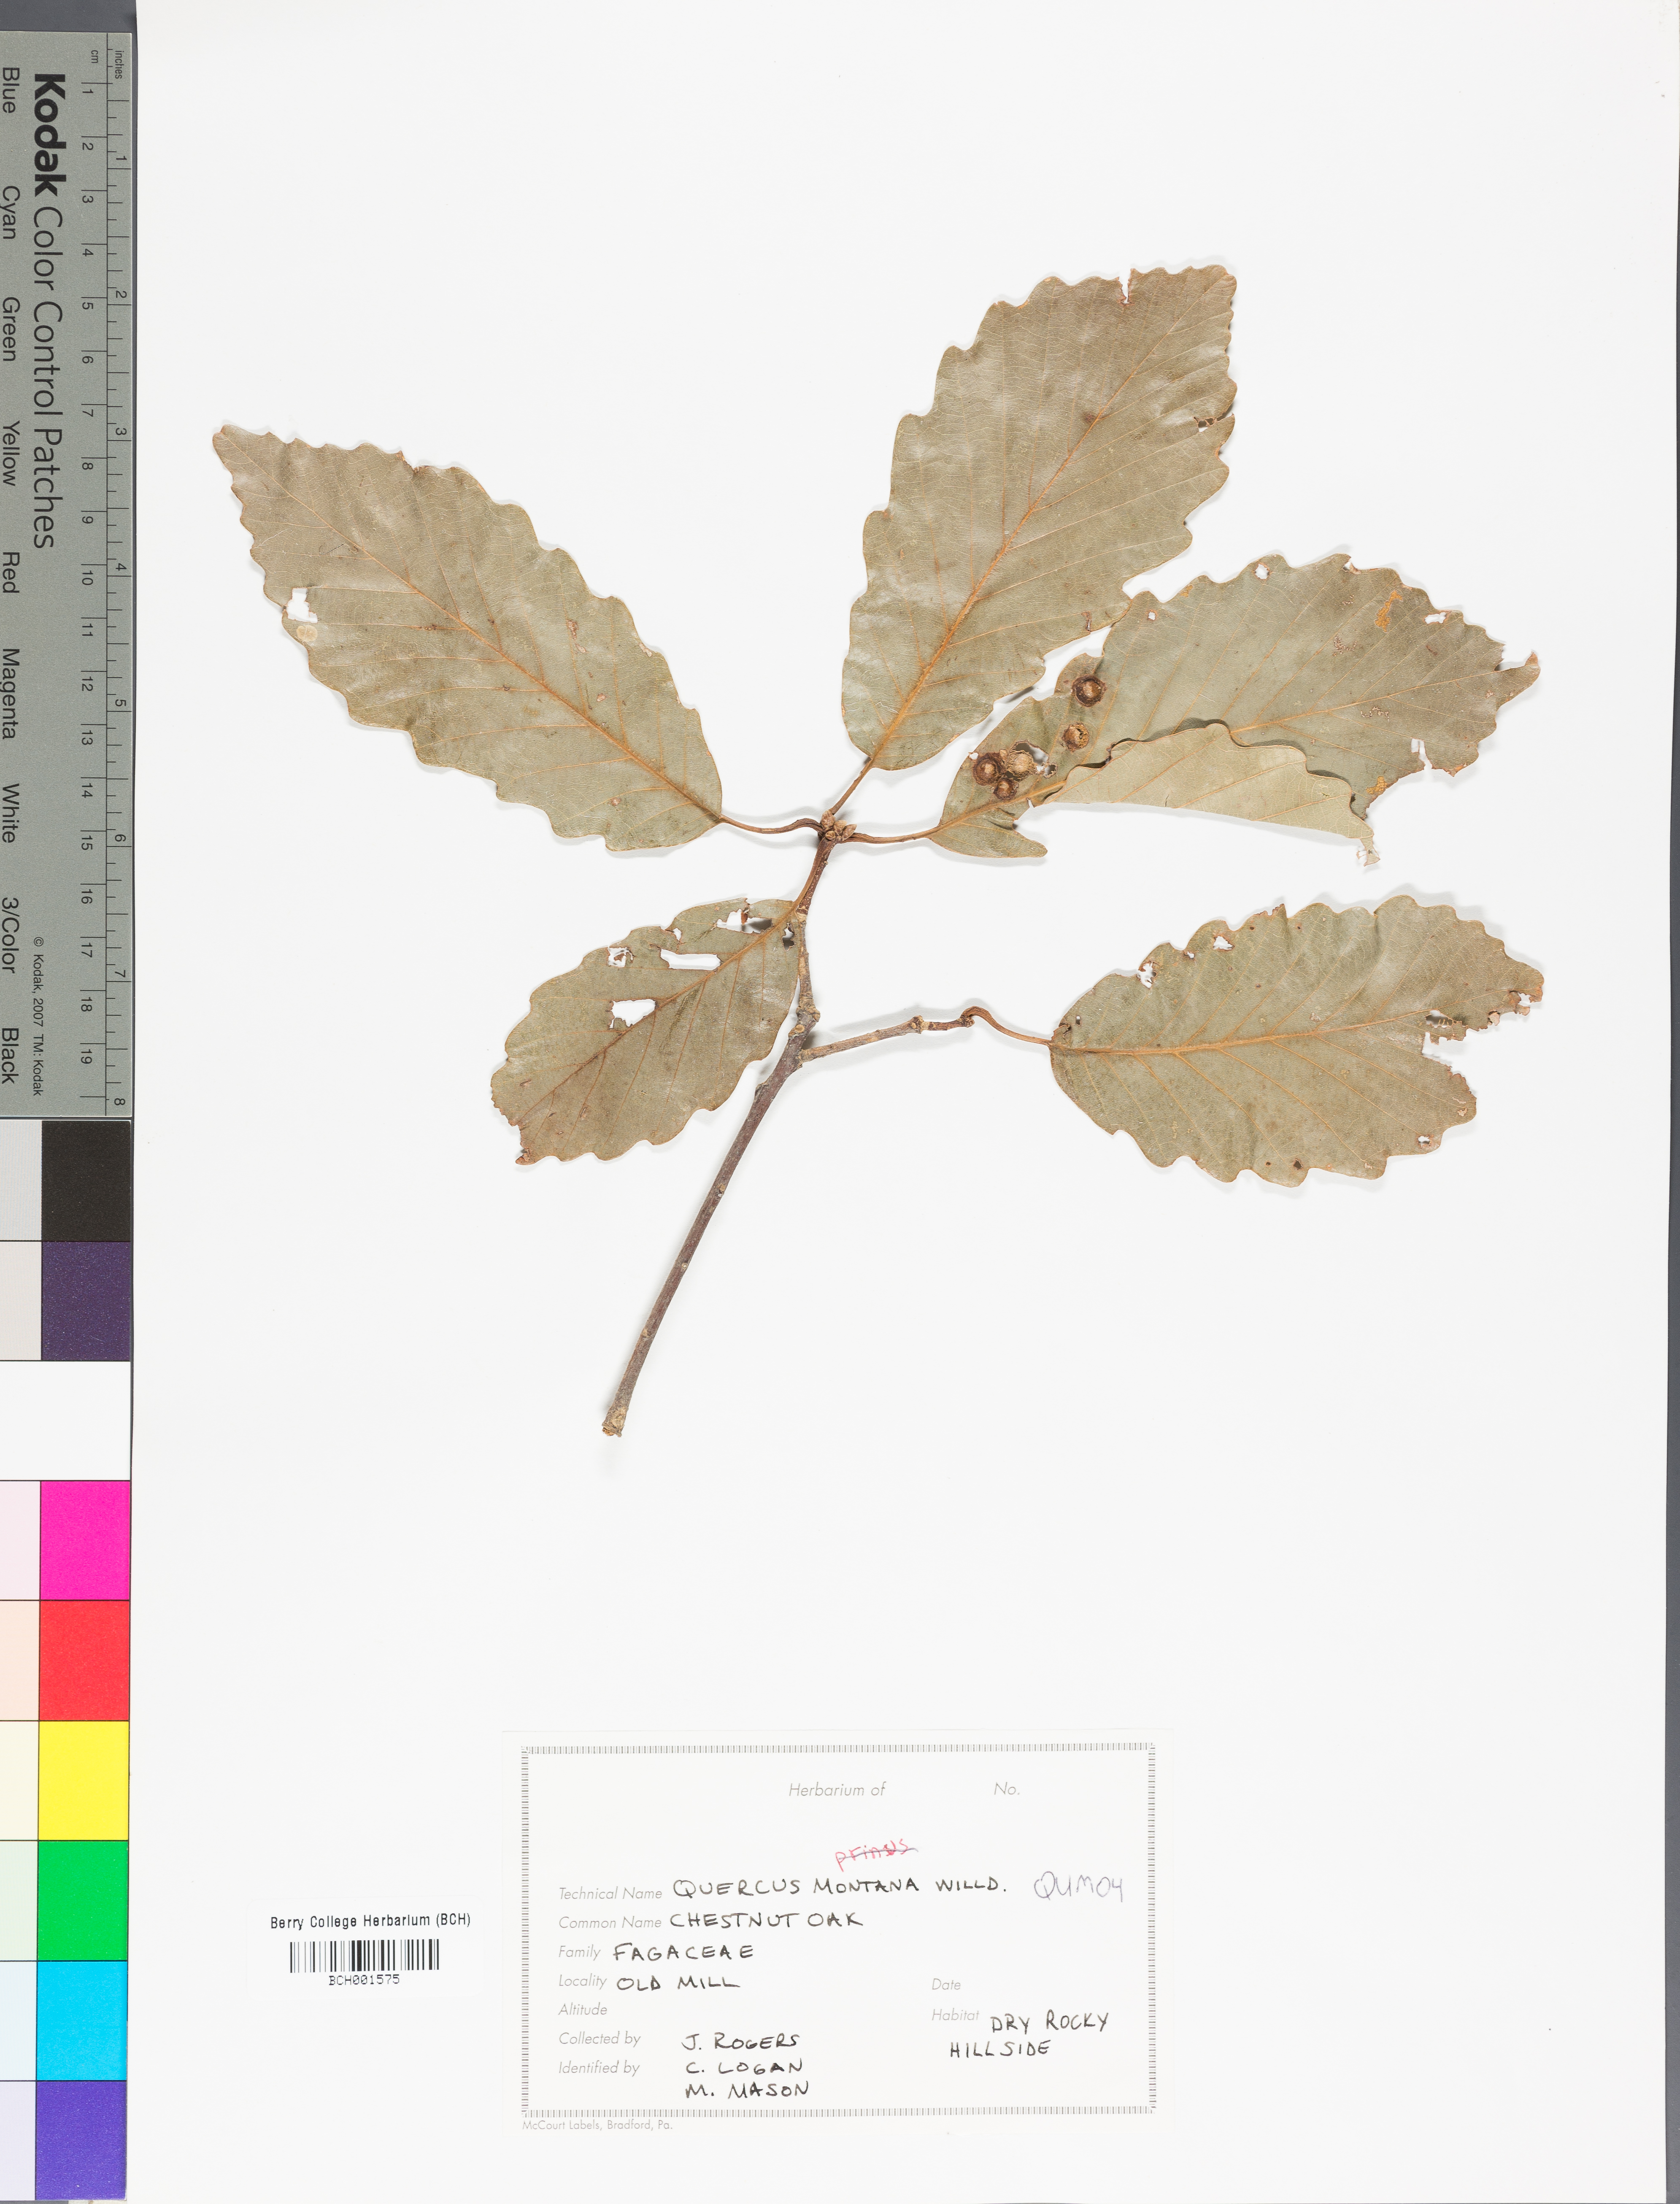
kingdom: Plantae
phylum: Tracheophyta
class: Magnoliopsida
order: Fagales
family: Fagaceae
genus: Quercus
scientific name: Quercus rubra
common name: Red oak
